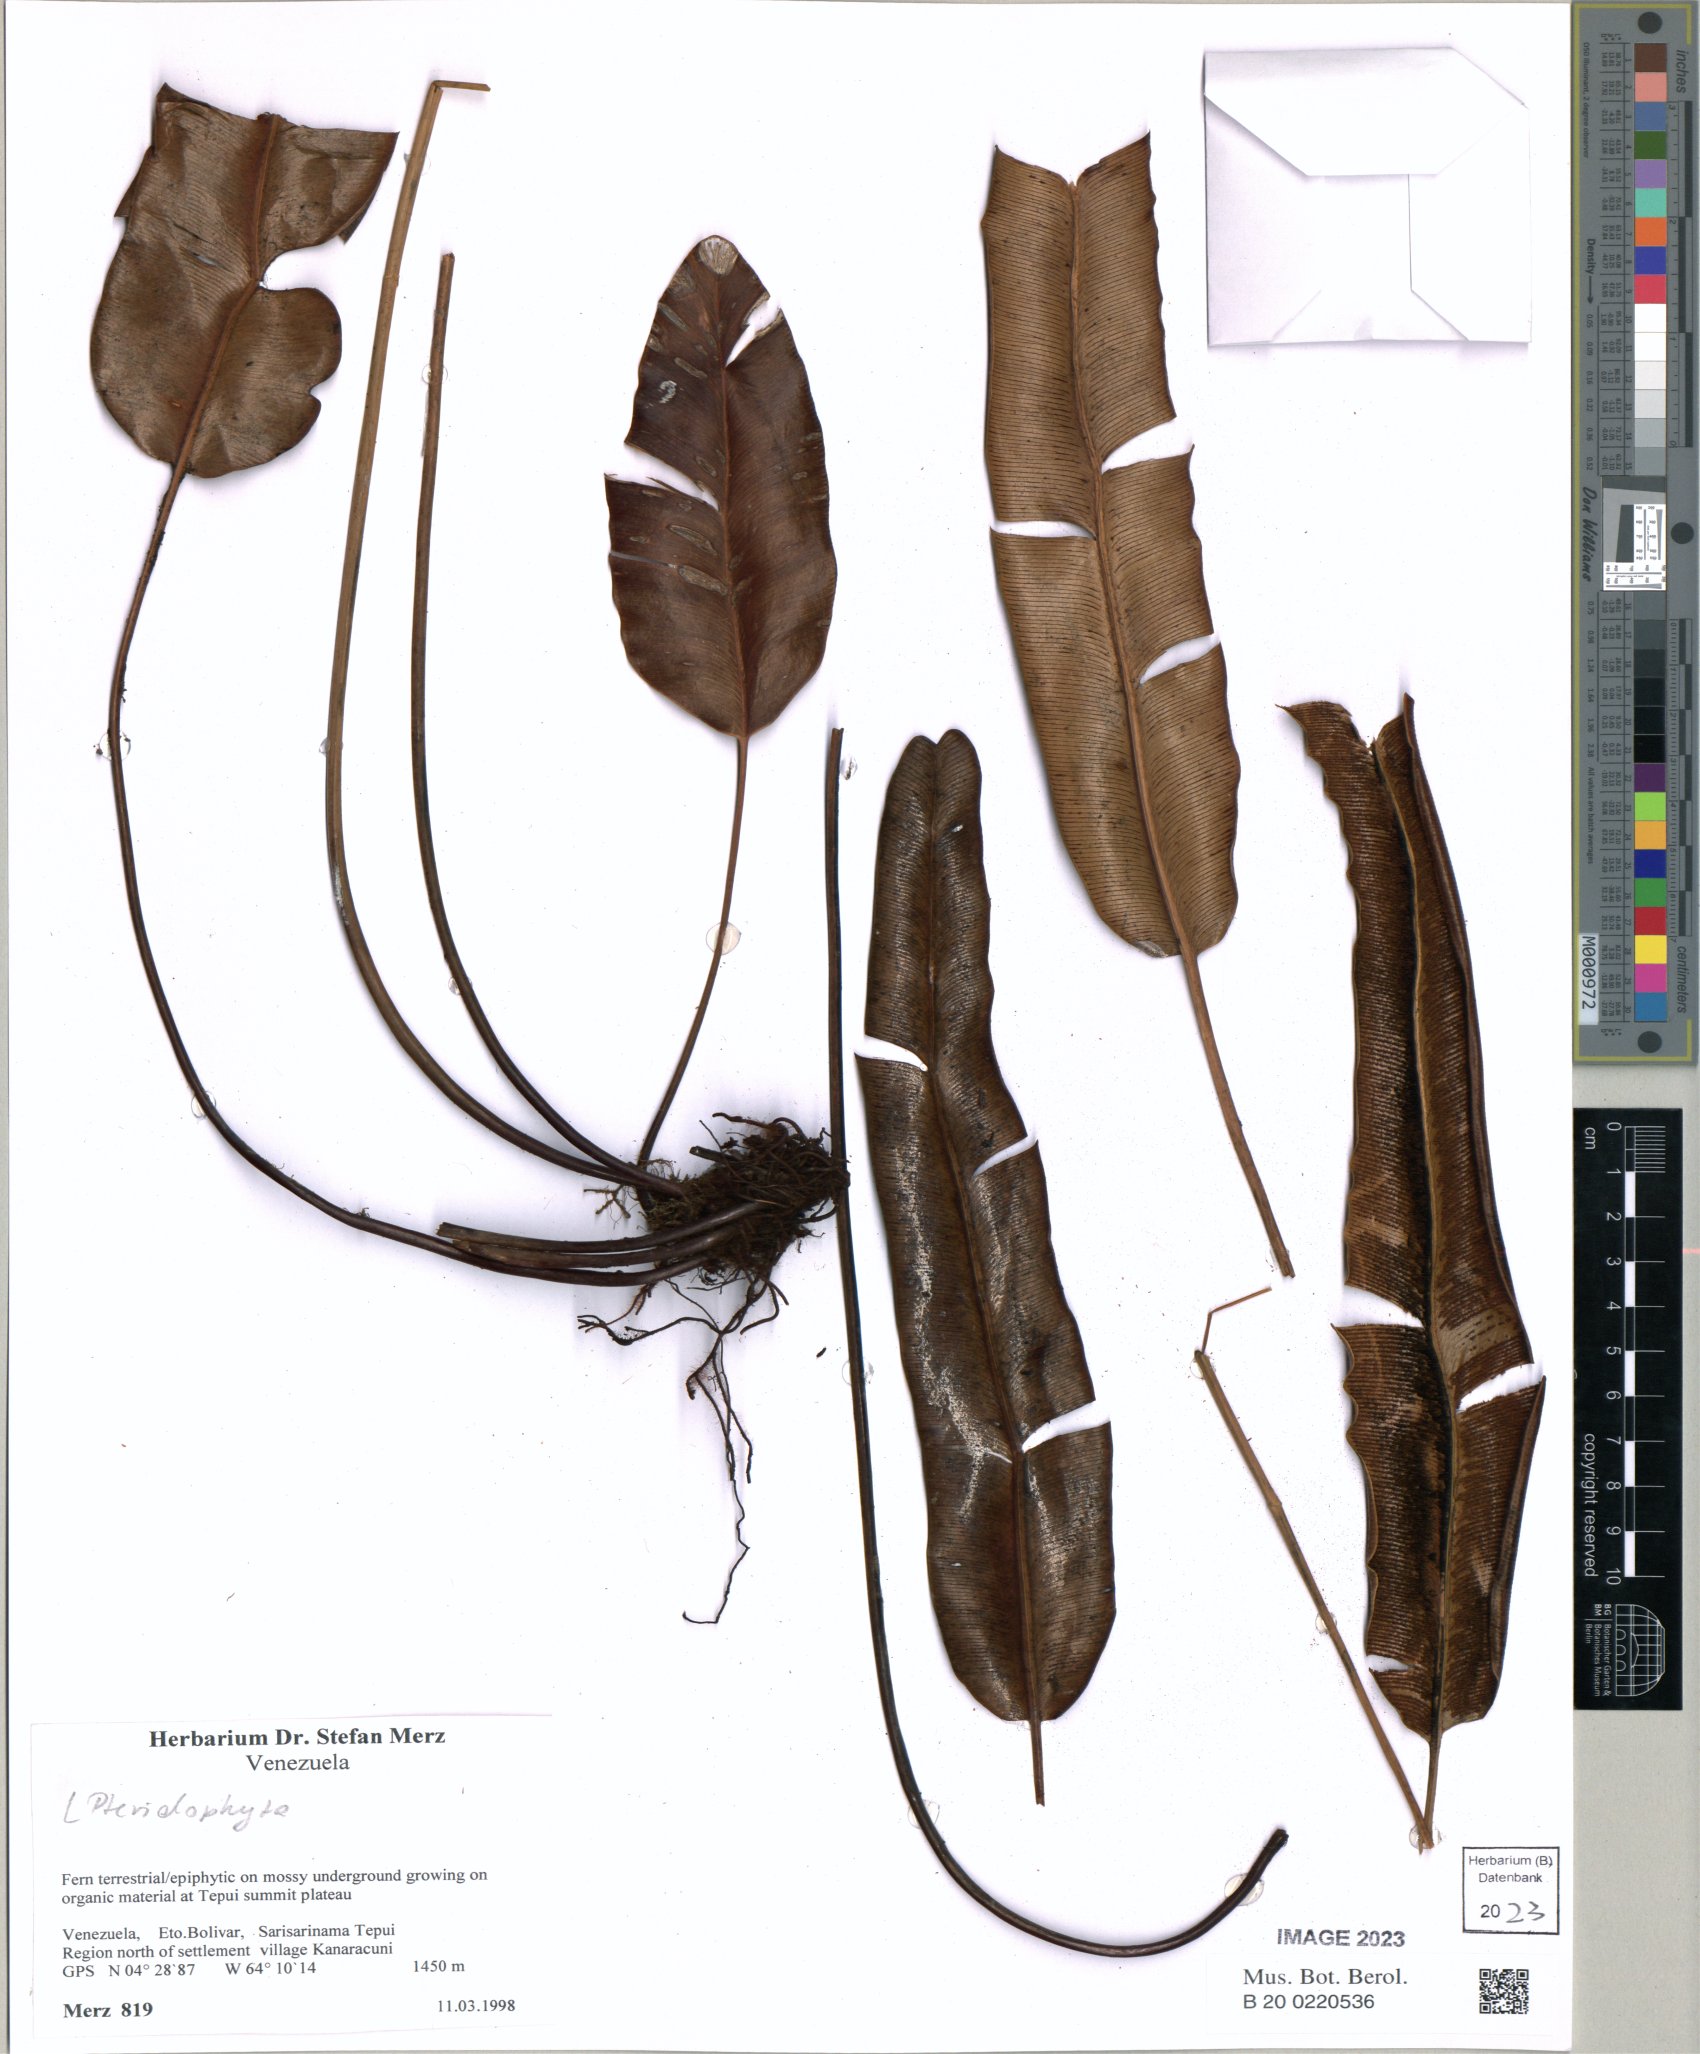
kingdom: Plantae
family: Pteridophyta
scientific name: Pteridophyta
